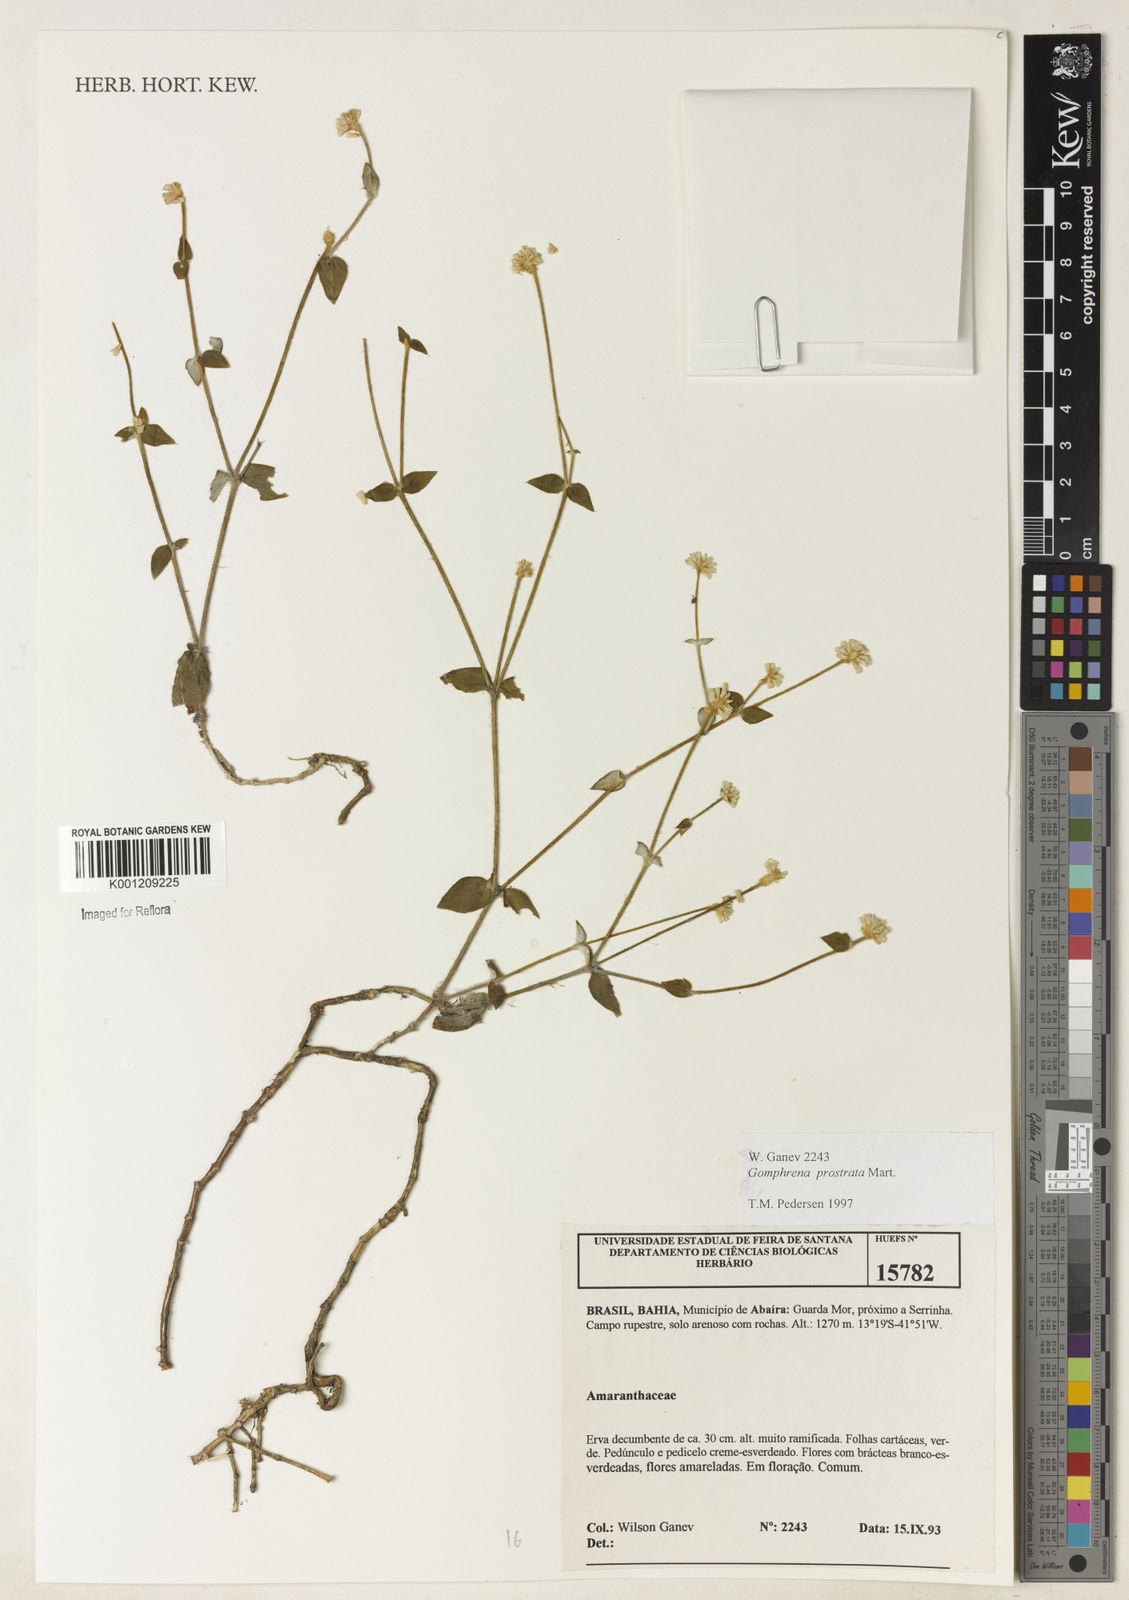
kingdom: Plantae
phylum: Tracheophyta
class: Magnoliopsida
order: Caryophyllales
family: Amaranthaceae
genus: Gomphrena
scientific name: Gomphrena prostrata
